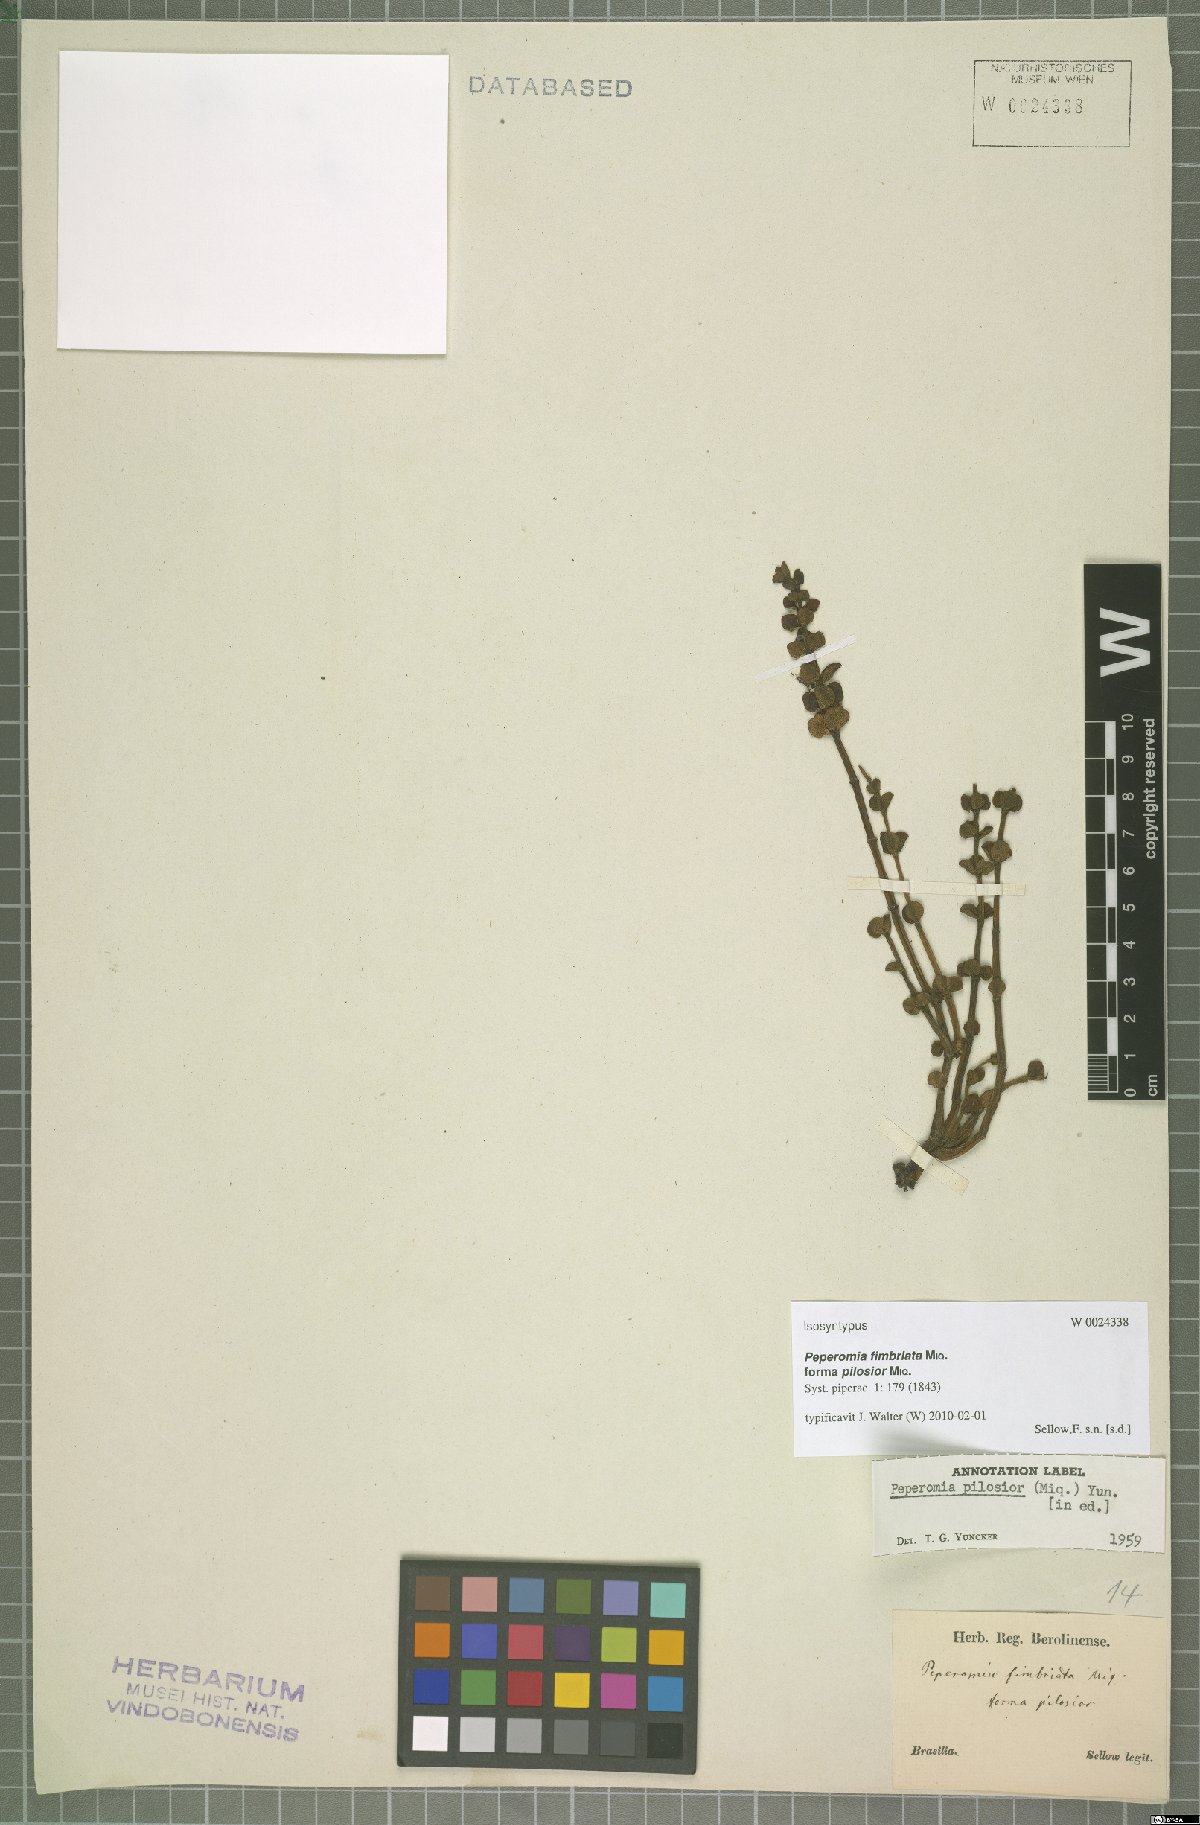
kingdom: Plantae
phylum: Tracheophyta
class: Magnoliopsida
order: Piperales
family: Piperaceae
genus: Peperomia
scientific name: Peperomia subrubrispica
